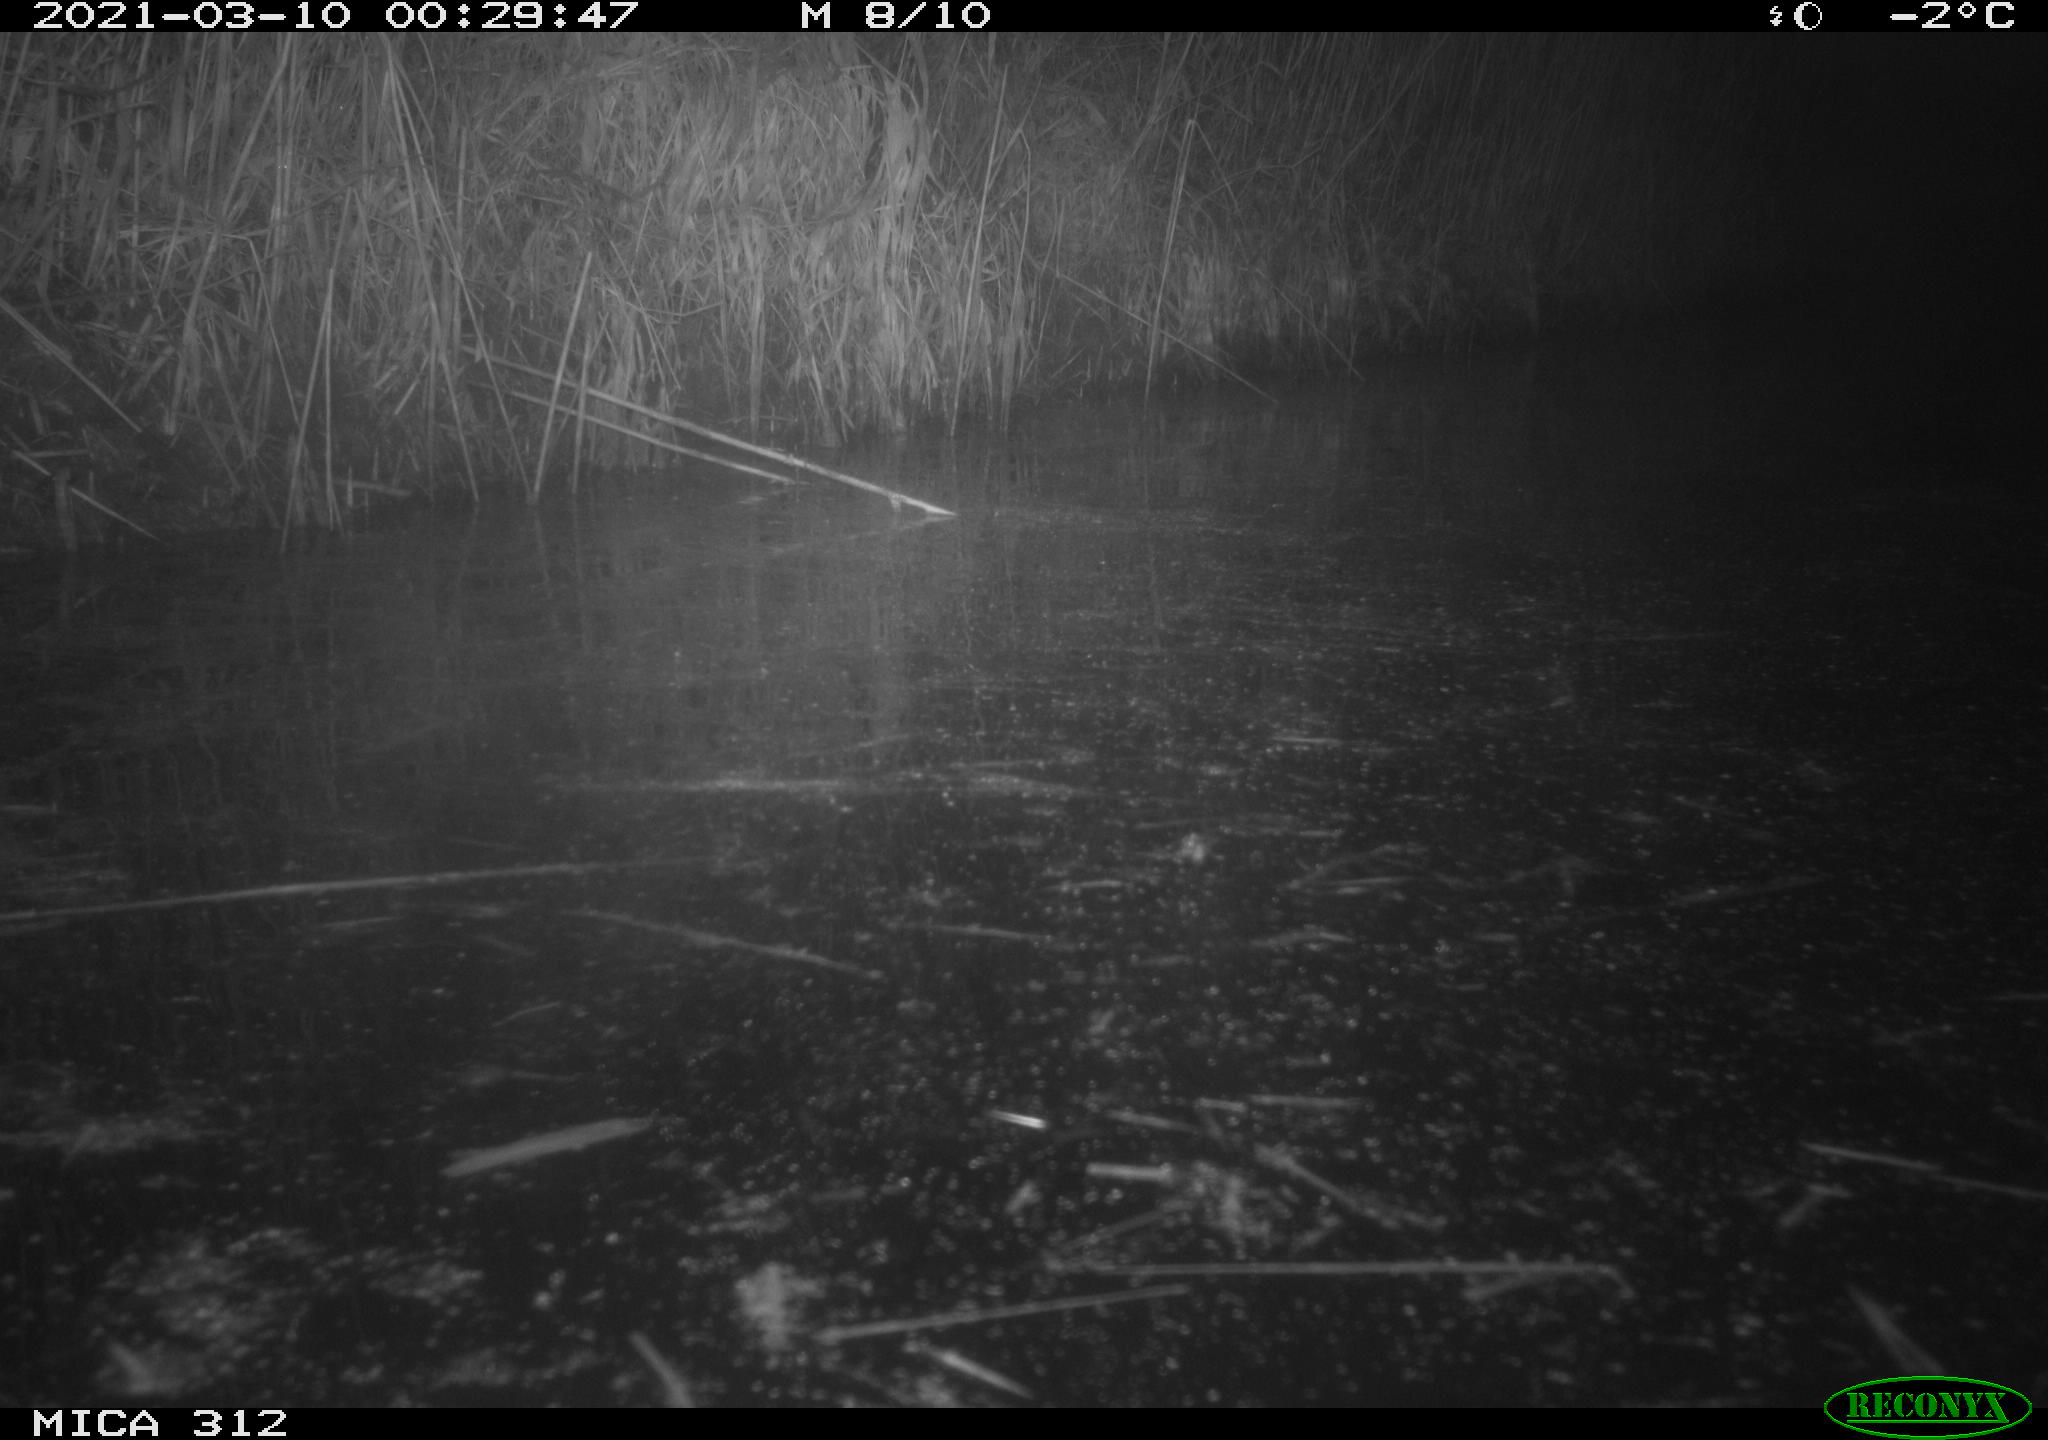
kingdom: Animalia
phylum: Chordata
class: Mammalia
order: Rodentia
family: Cricetidae
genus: Ondatra
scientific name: Ondatra zibethicus
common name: Muskrat
